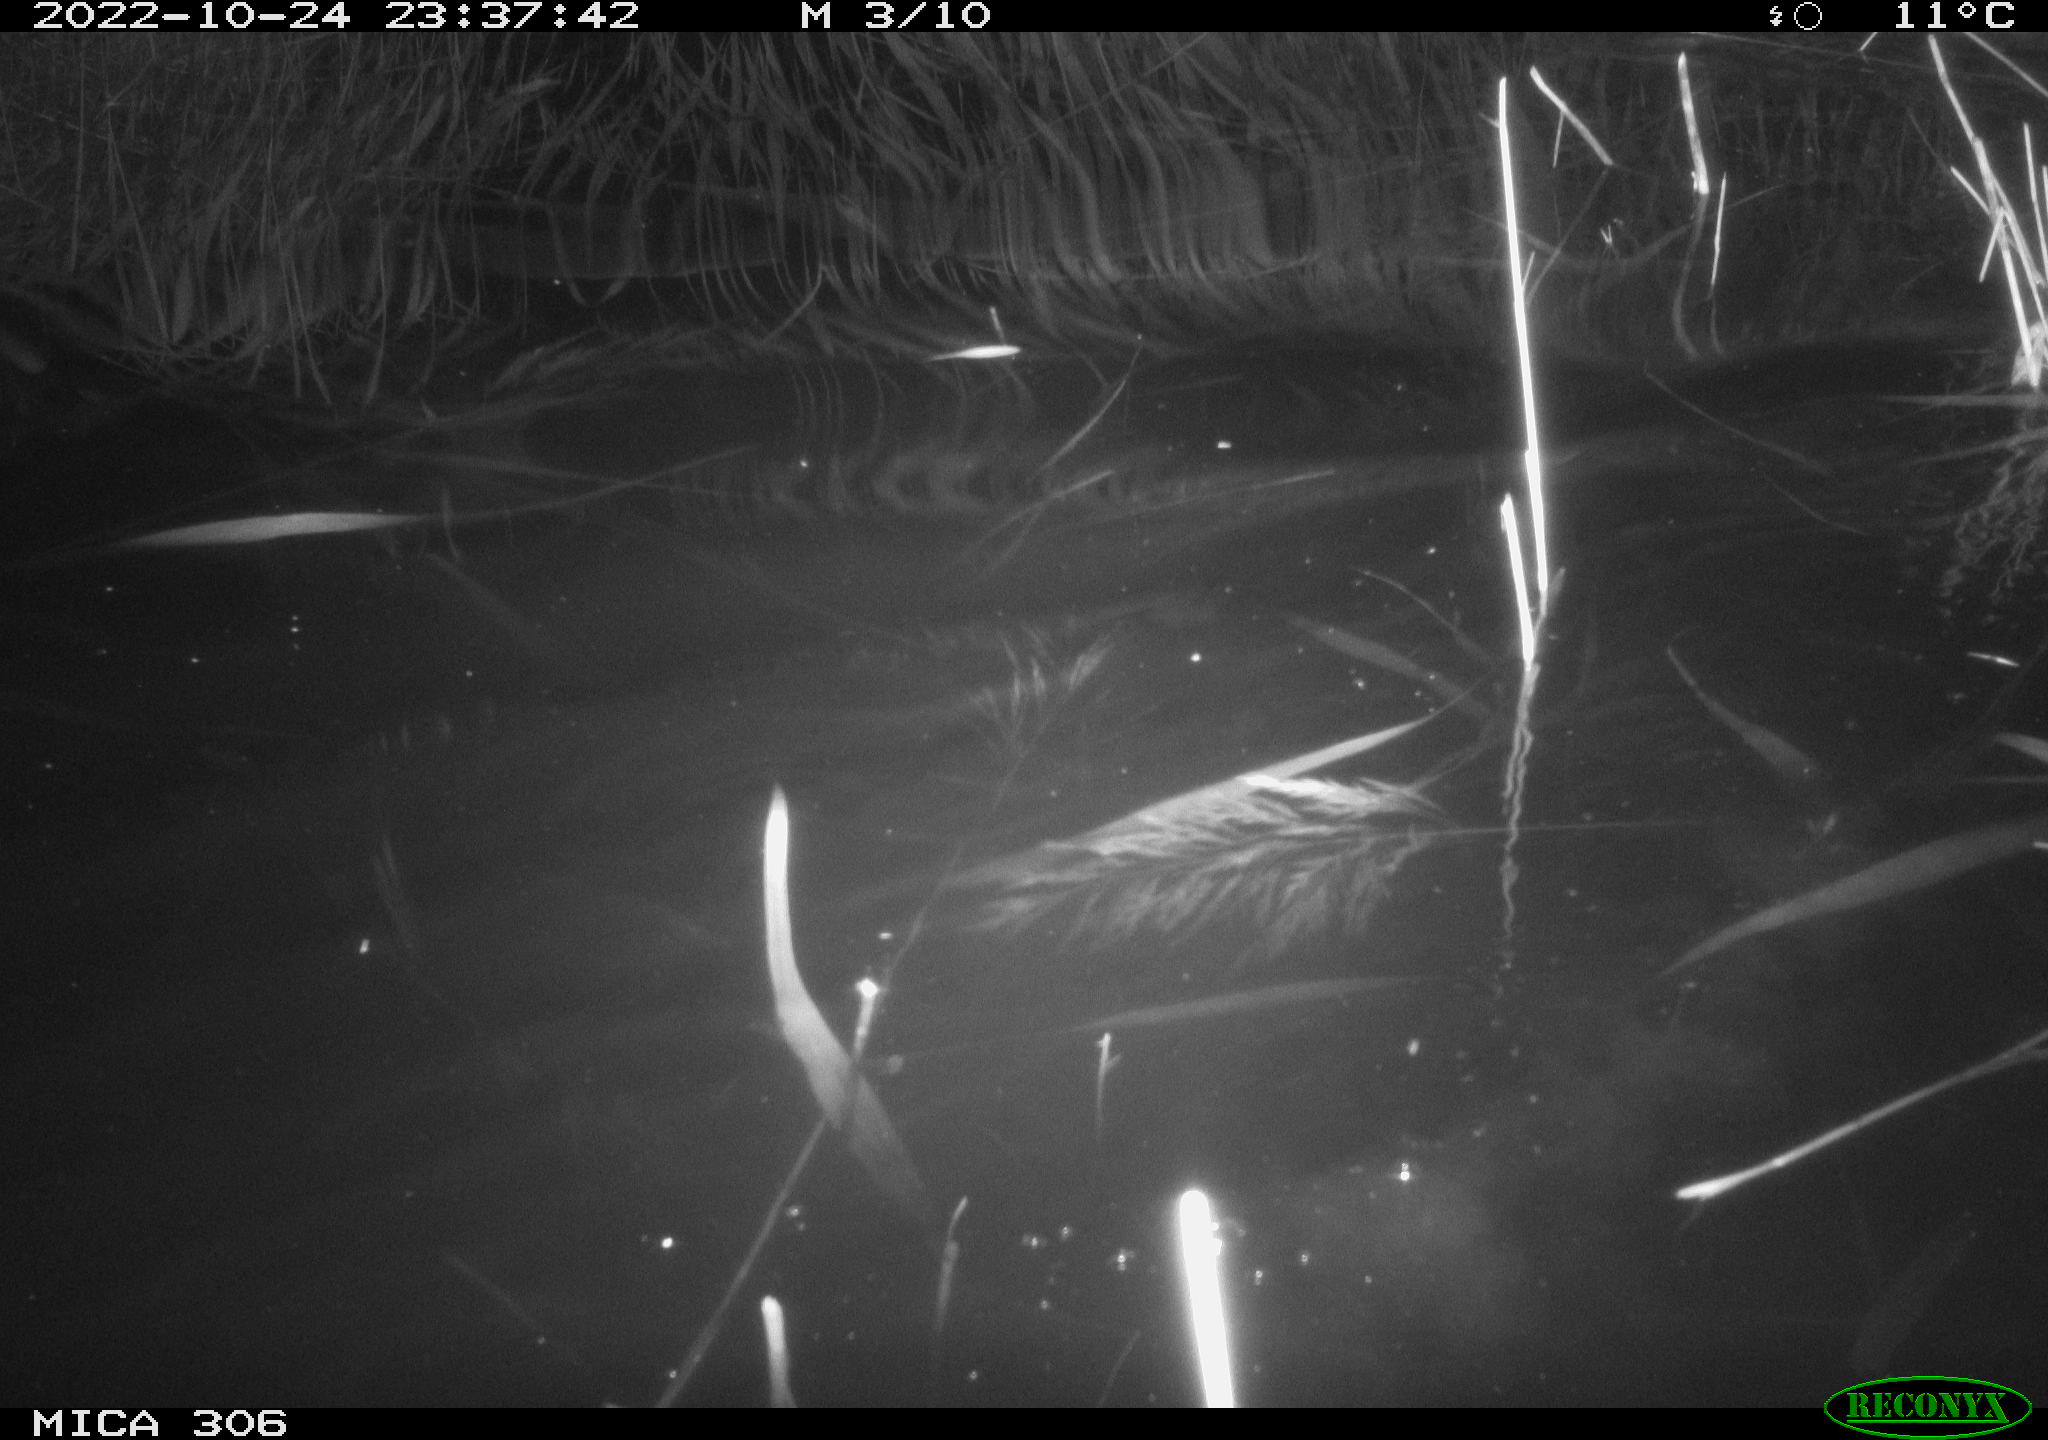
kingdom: Animalia
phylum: Chordata
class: Mammalia
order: Rodentia
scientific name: Rodentia
